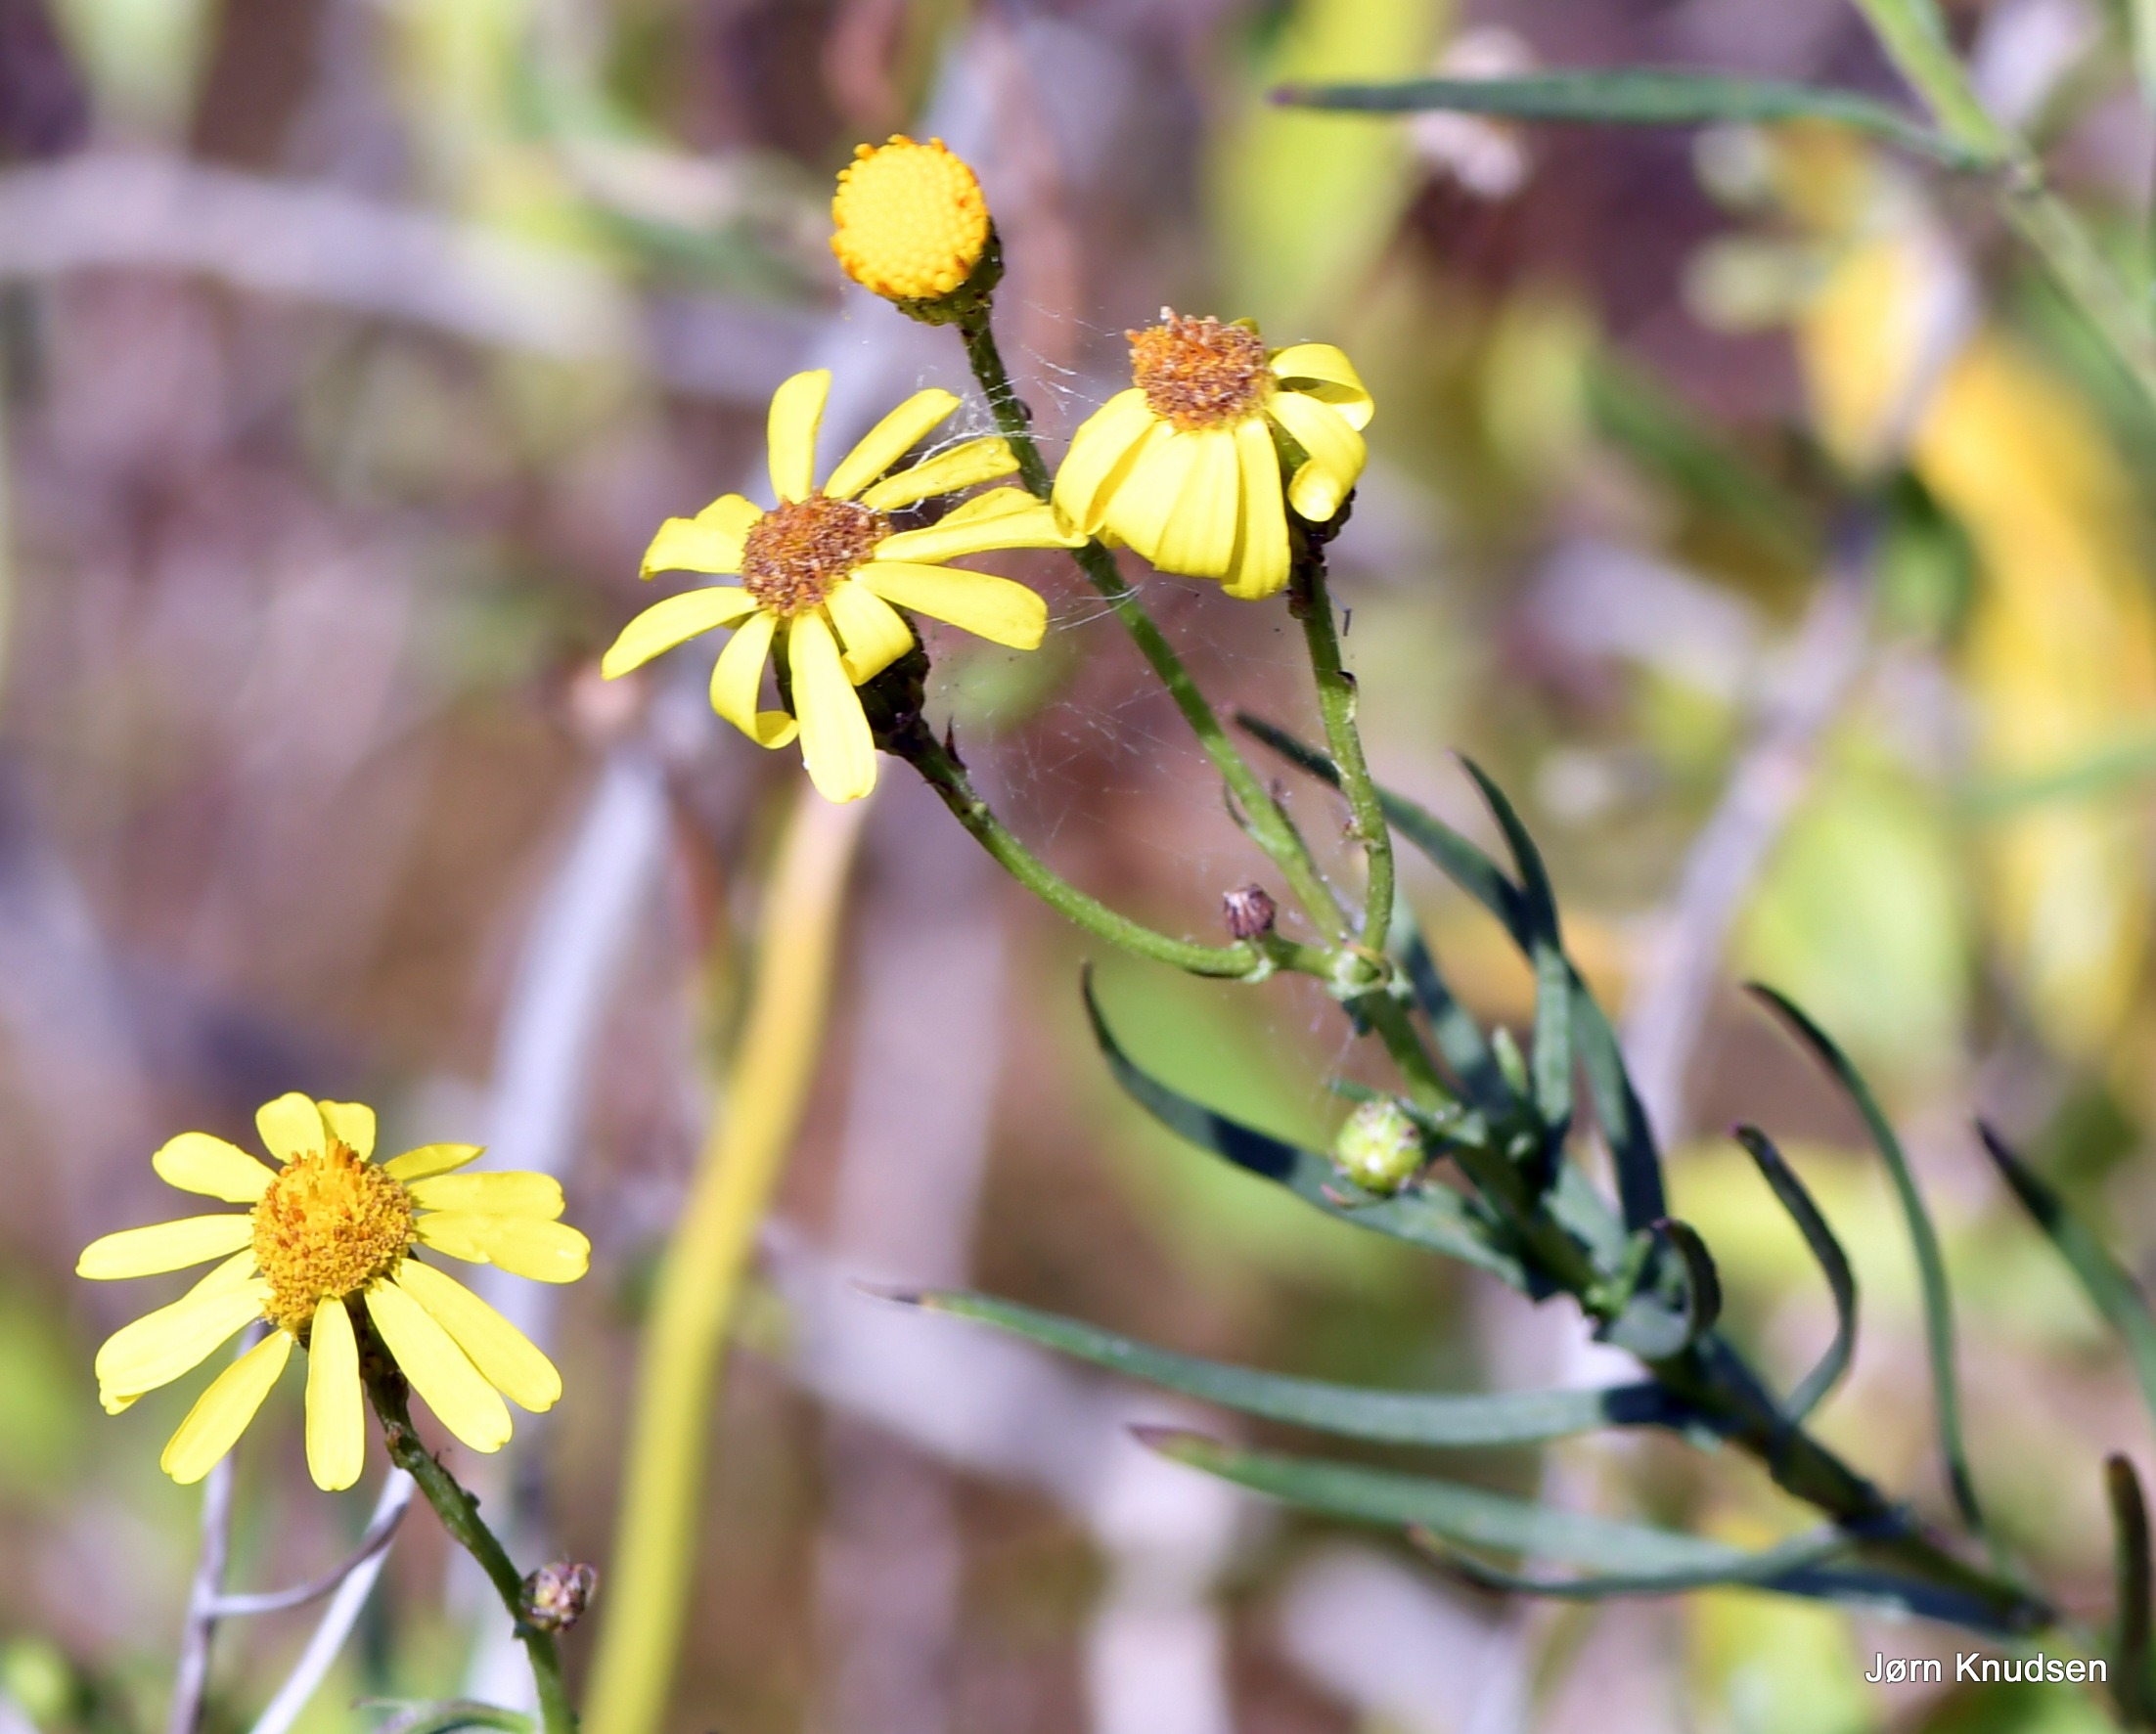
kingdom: Plantae
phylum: Tracheophyta
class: Magnoliopsida
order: Asterales
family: Asteraceae
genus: Senecio
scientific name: Senecio inaequidens
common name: Smalbladet brandbæger
